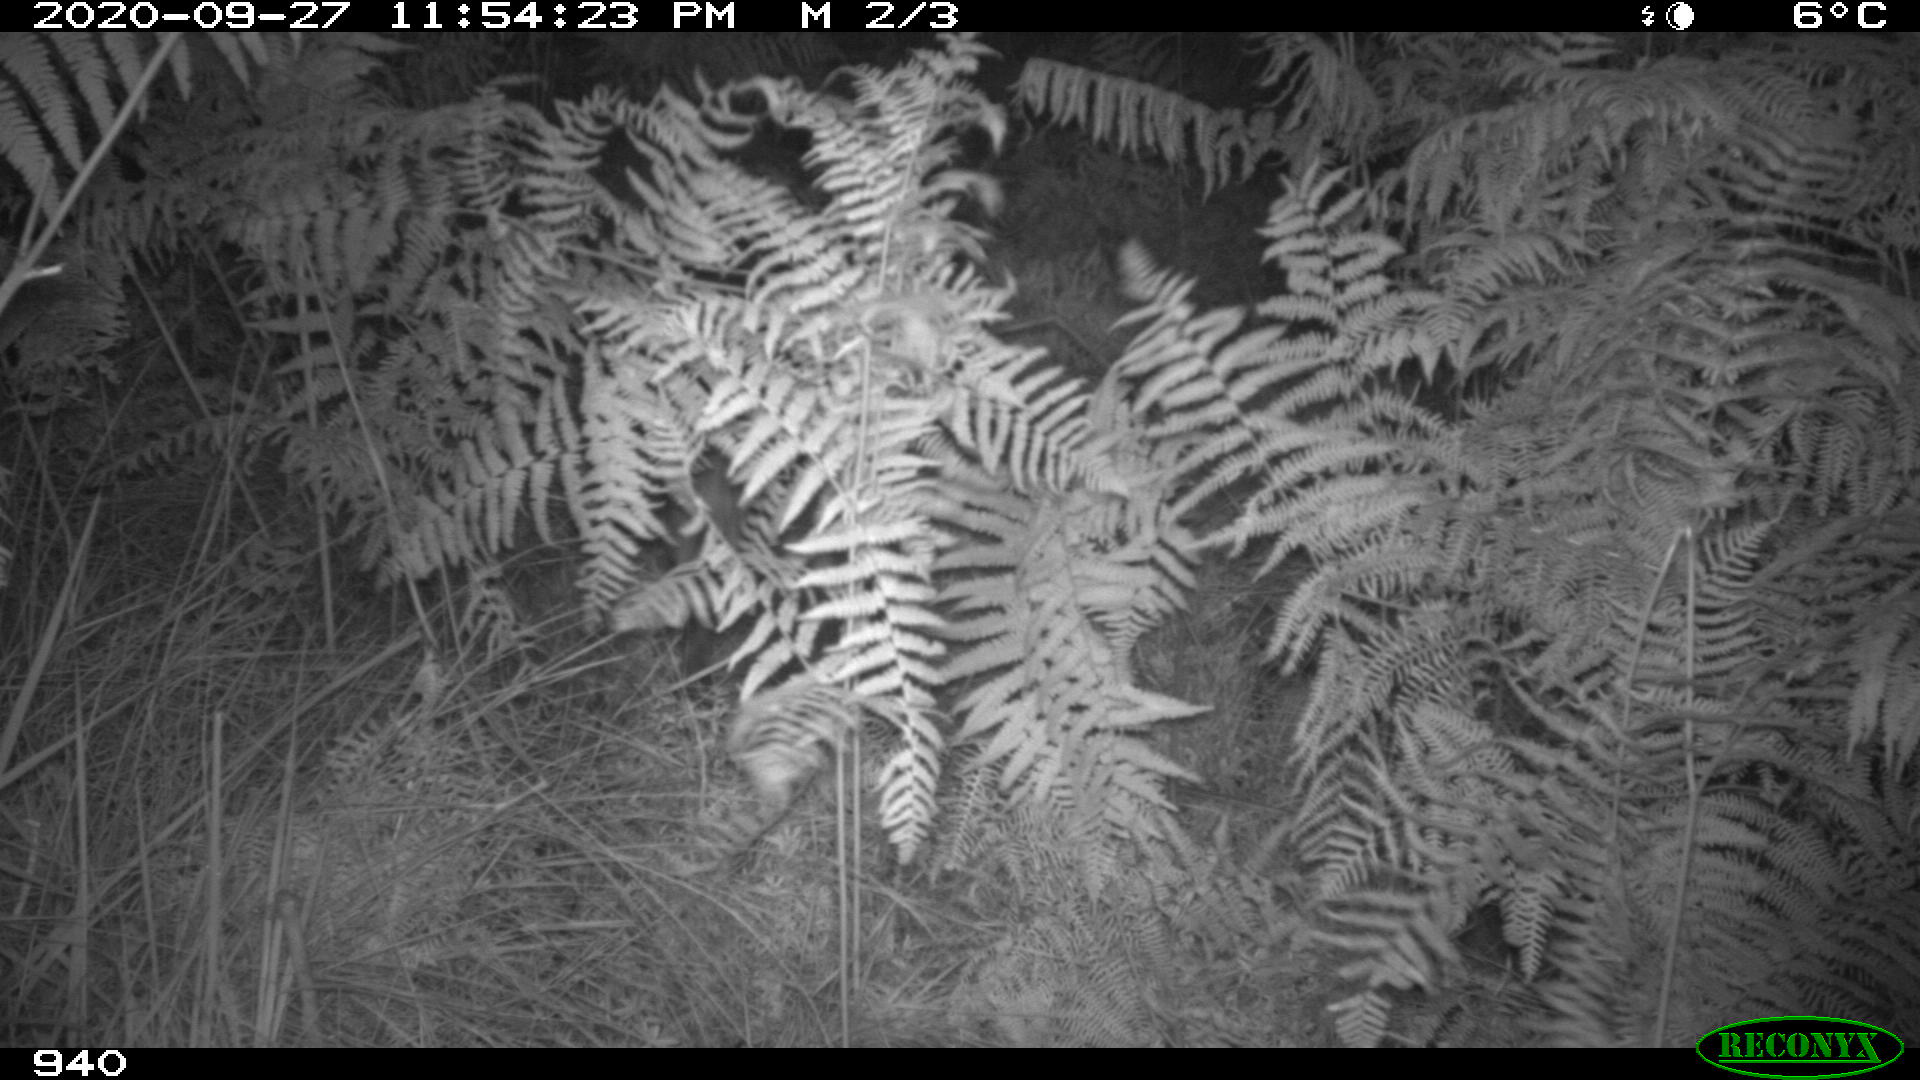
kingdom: Animalia
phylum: Chordata
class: Mammalia
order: Artiodactyla
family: Suidae
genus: Sus
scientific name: Sus scrofa
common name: Wild boar
